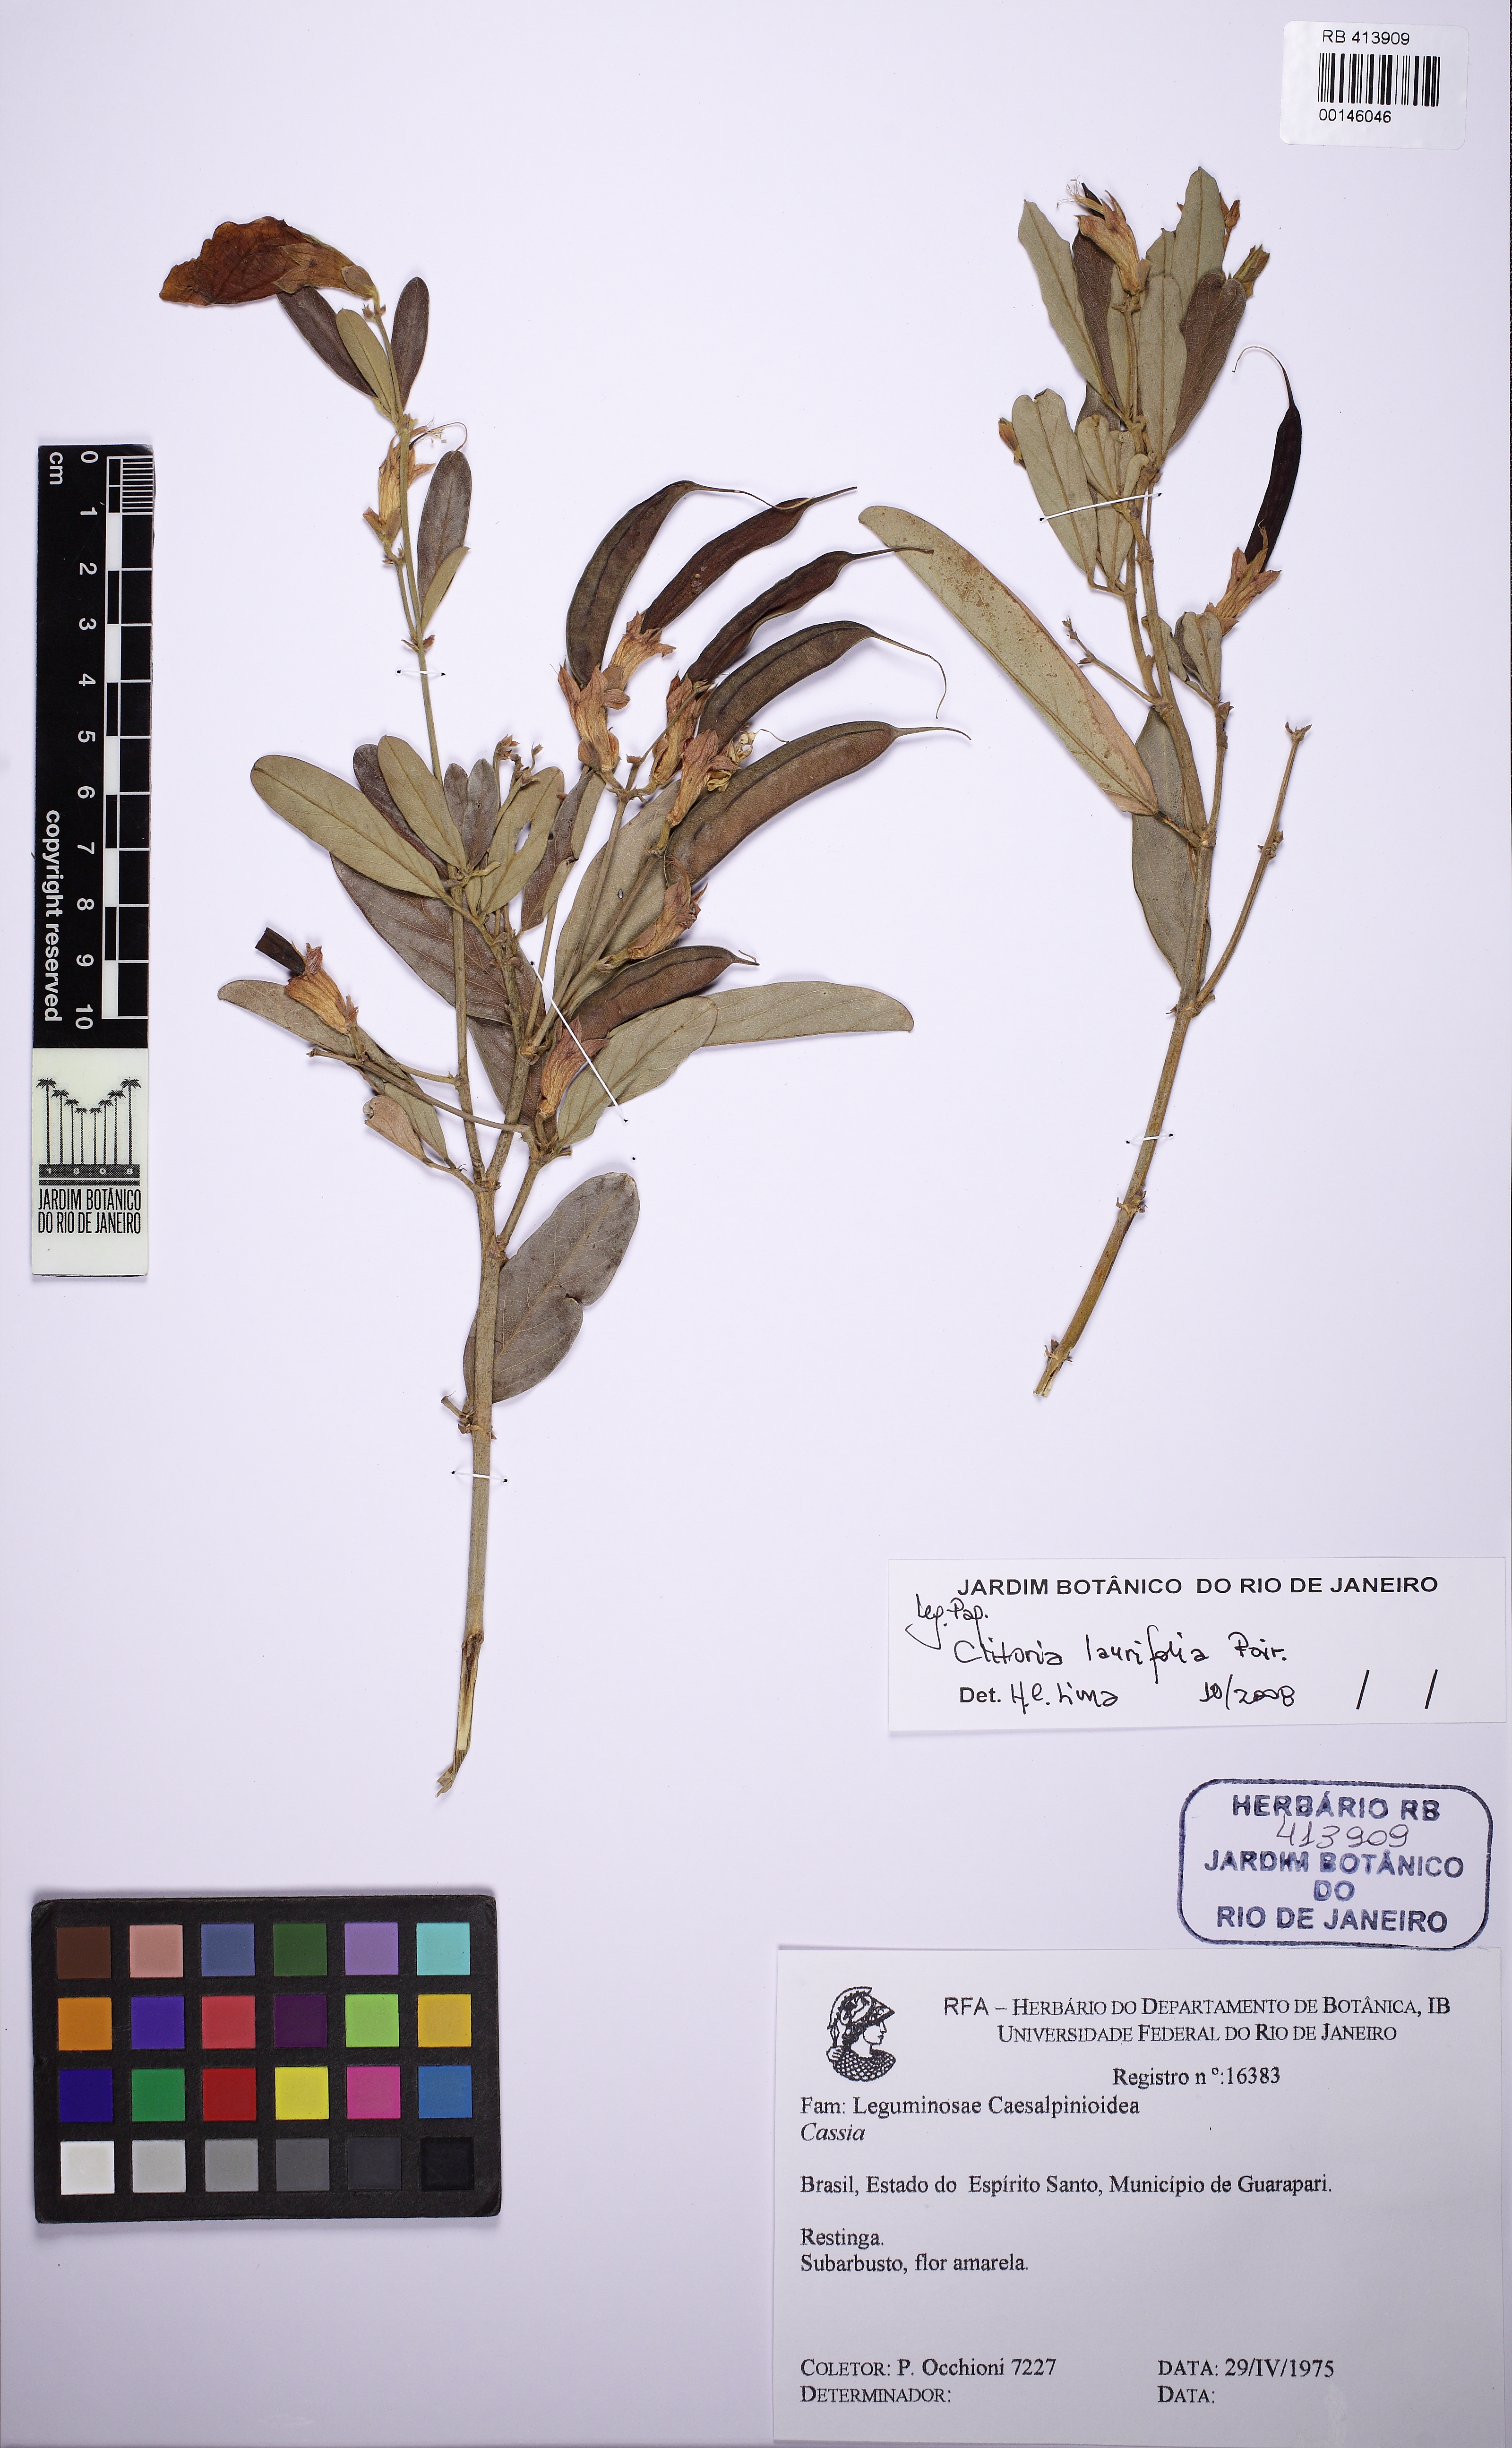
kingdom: Plantae
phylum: Tracheophyta
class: Magnoliopsida
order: Fabales
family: Fabaceae
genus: Clitoria
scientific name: Clitoria laurifolia
